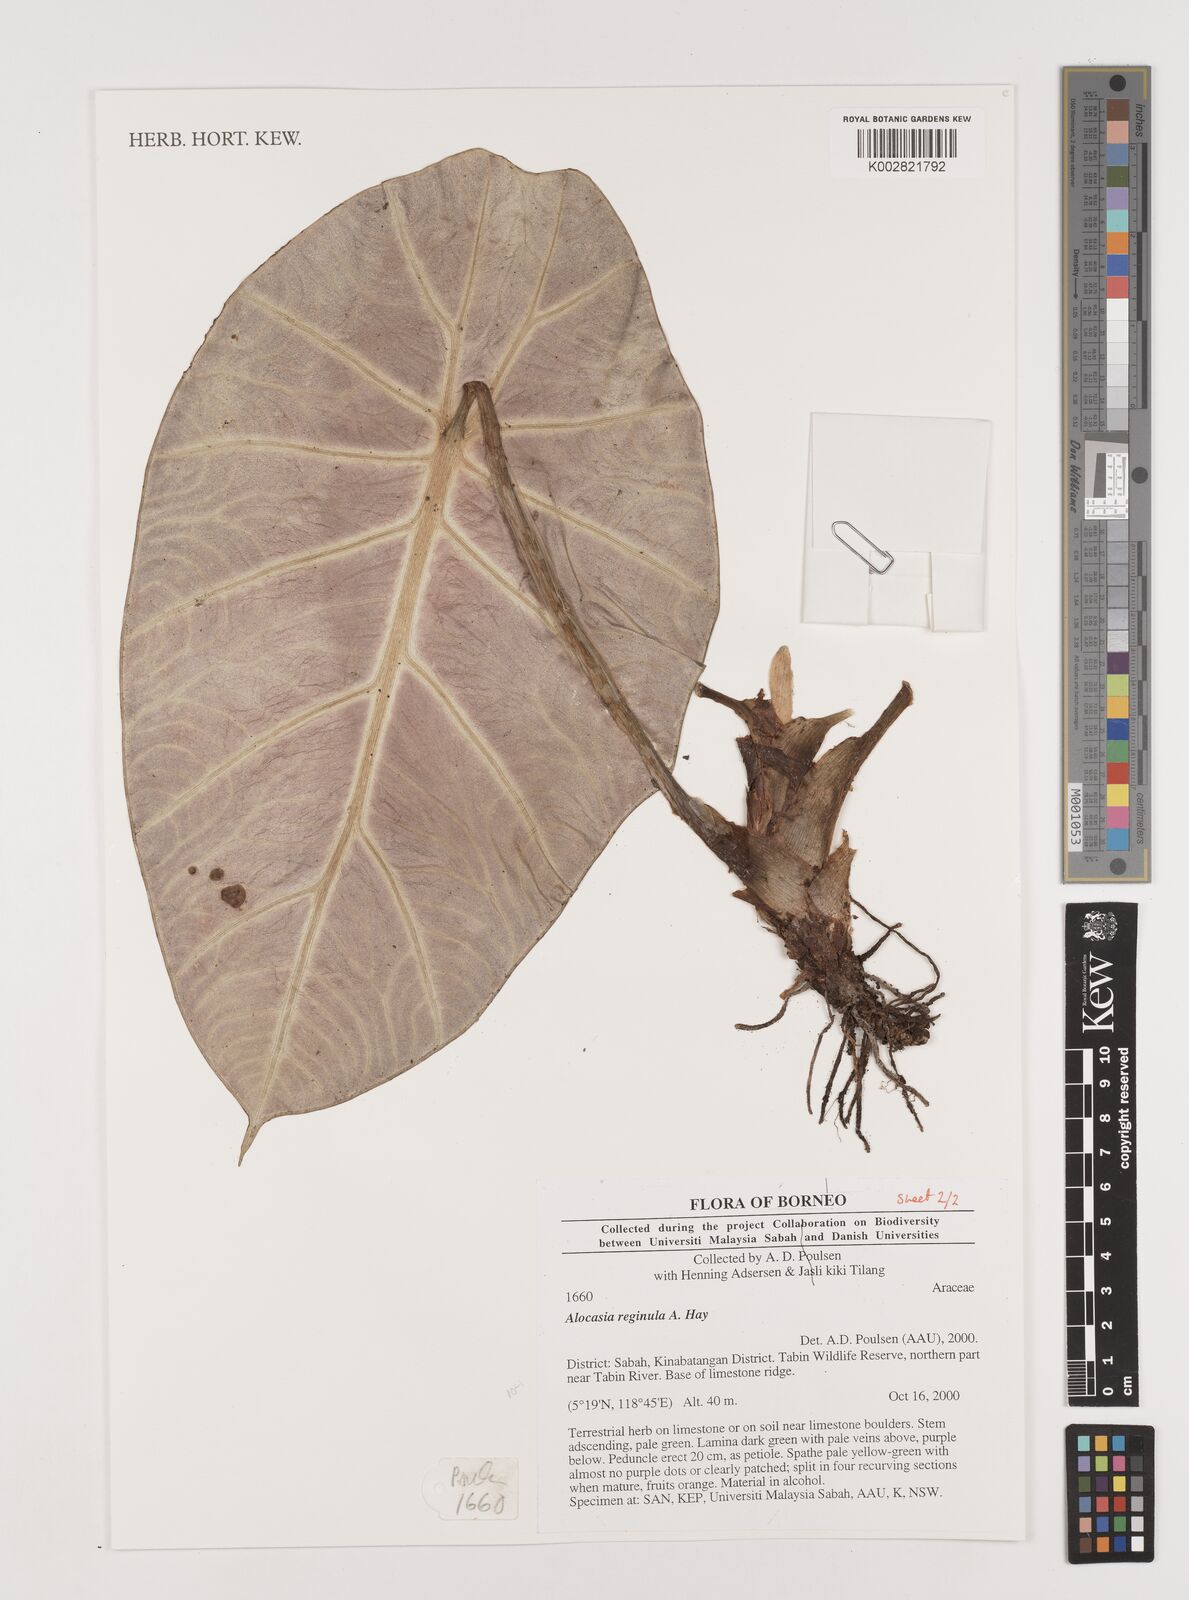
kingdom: Plantae
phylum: Tracheophyta
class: Liliopsida
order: Alismatales
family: Araceae
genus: Alocasia
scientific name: Alocasia reginae
